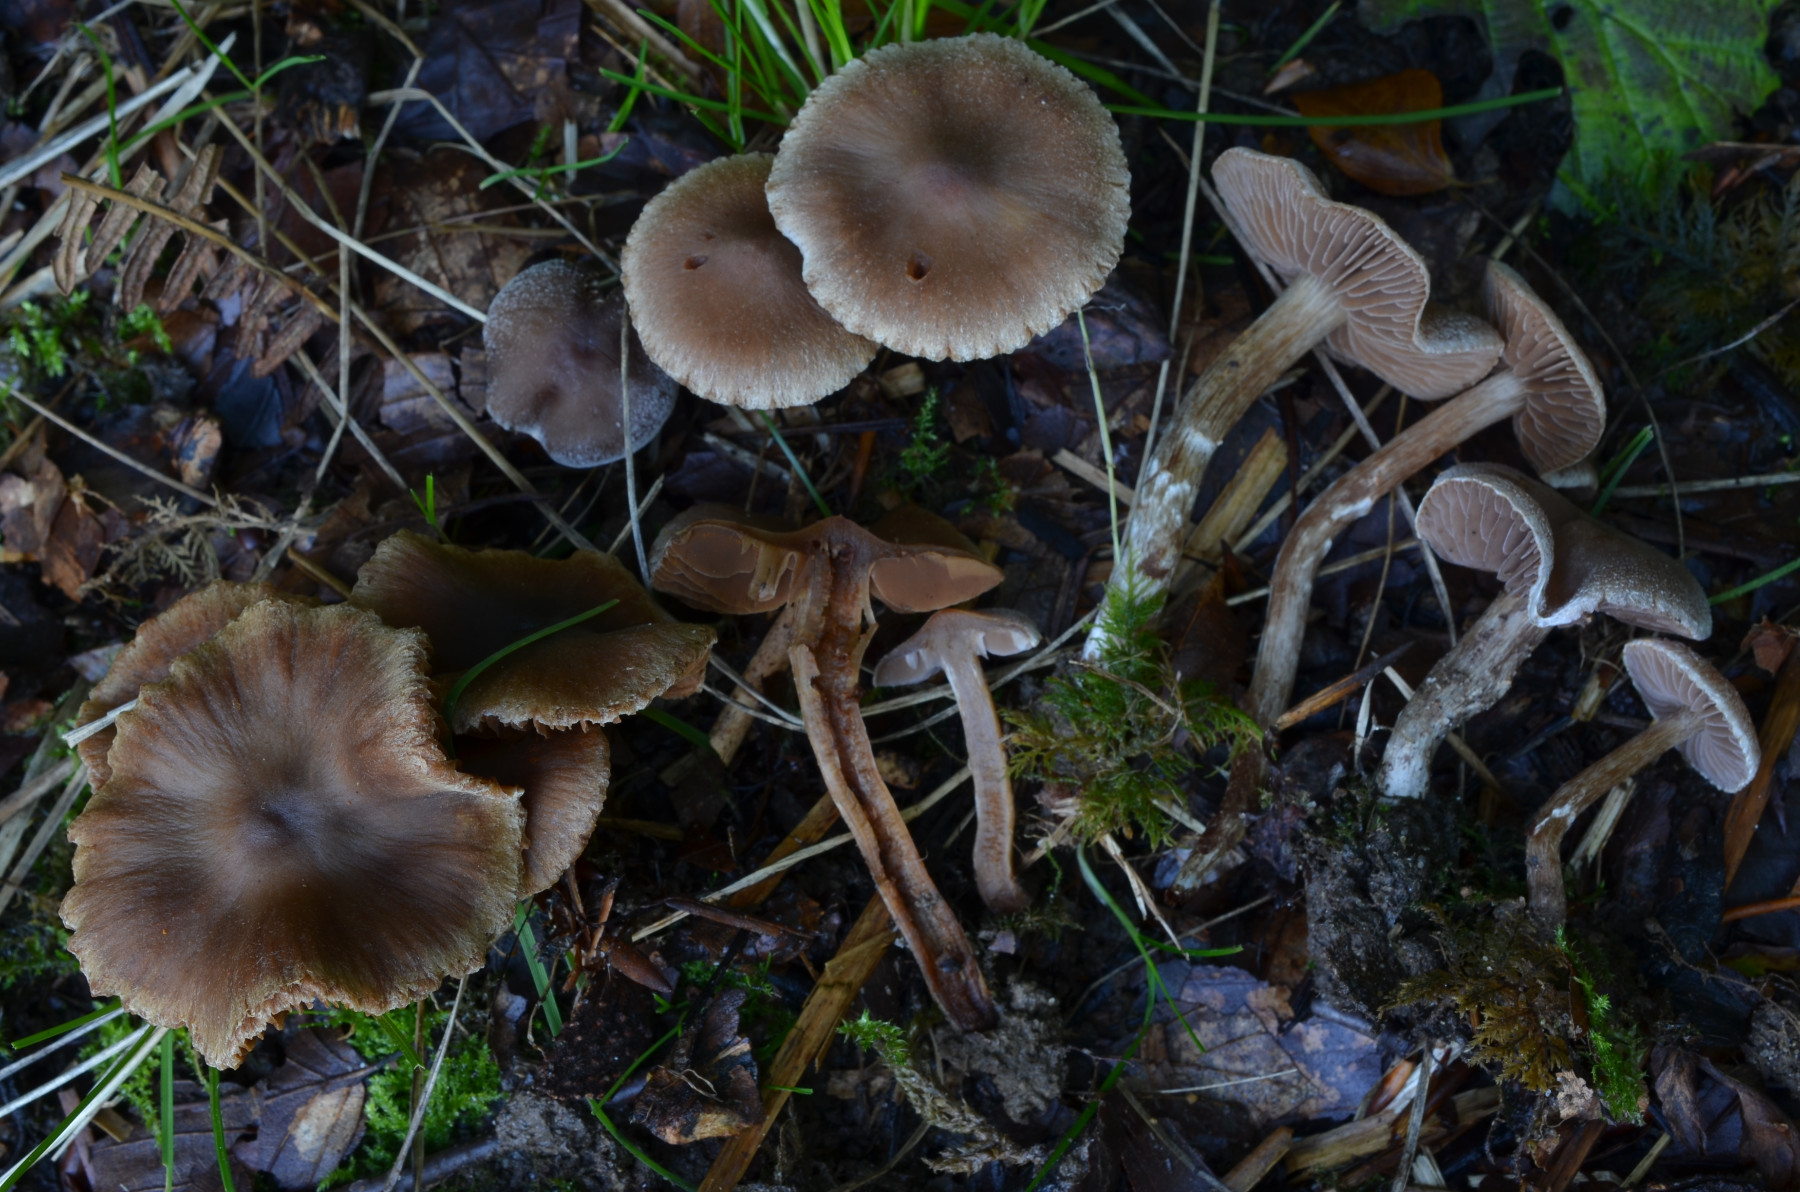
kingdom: Fungi
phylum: Basidiomycota
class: Agaricomycetes
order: Agaricales
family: Cortinariaceae
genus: Cortinarius
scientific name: Cortinarius geraniolens
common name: geranium-slørhat
